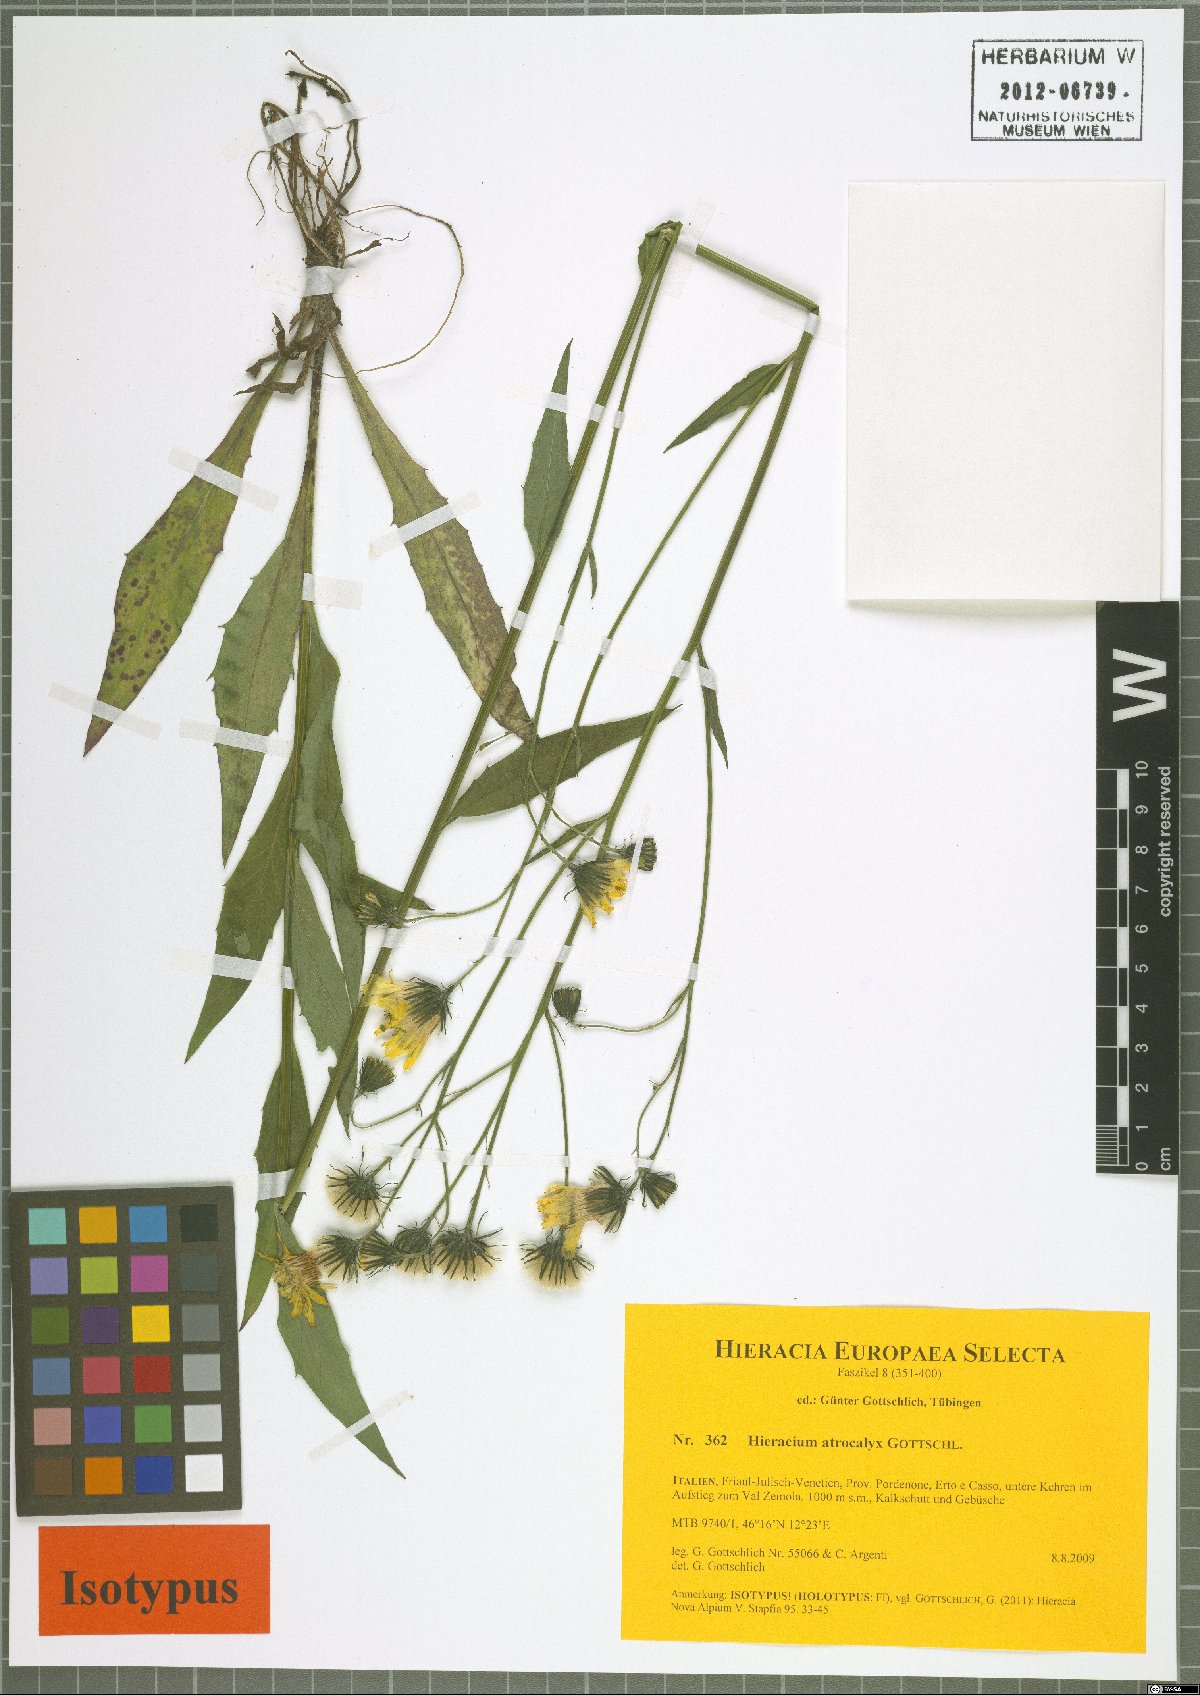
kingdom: Plantae
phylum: Tracheophyta
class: Magnoliopsida
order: Asterales
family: Asteraceae
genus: Hieracium
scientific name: Hieracium atrocalyx
